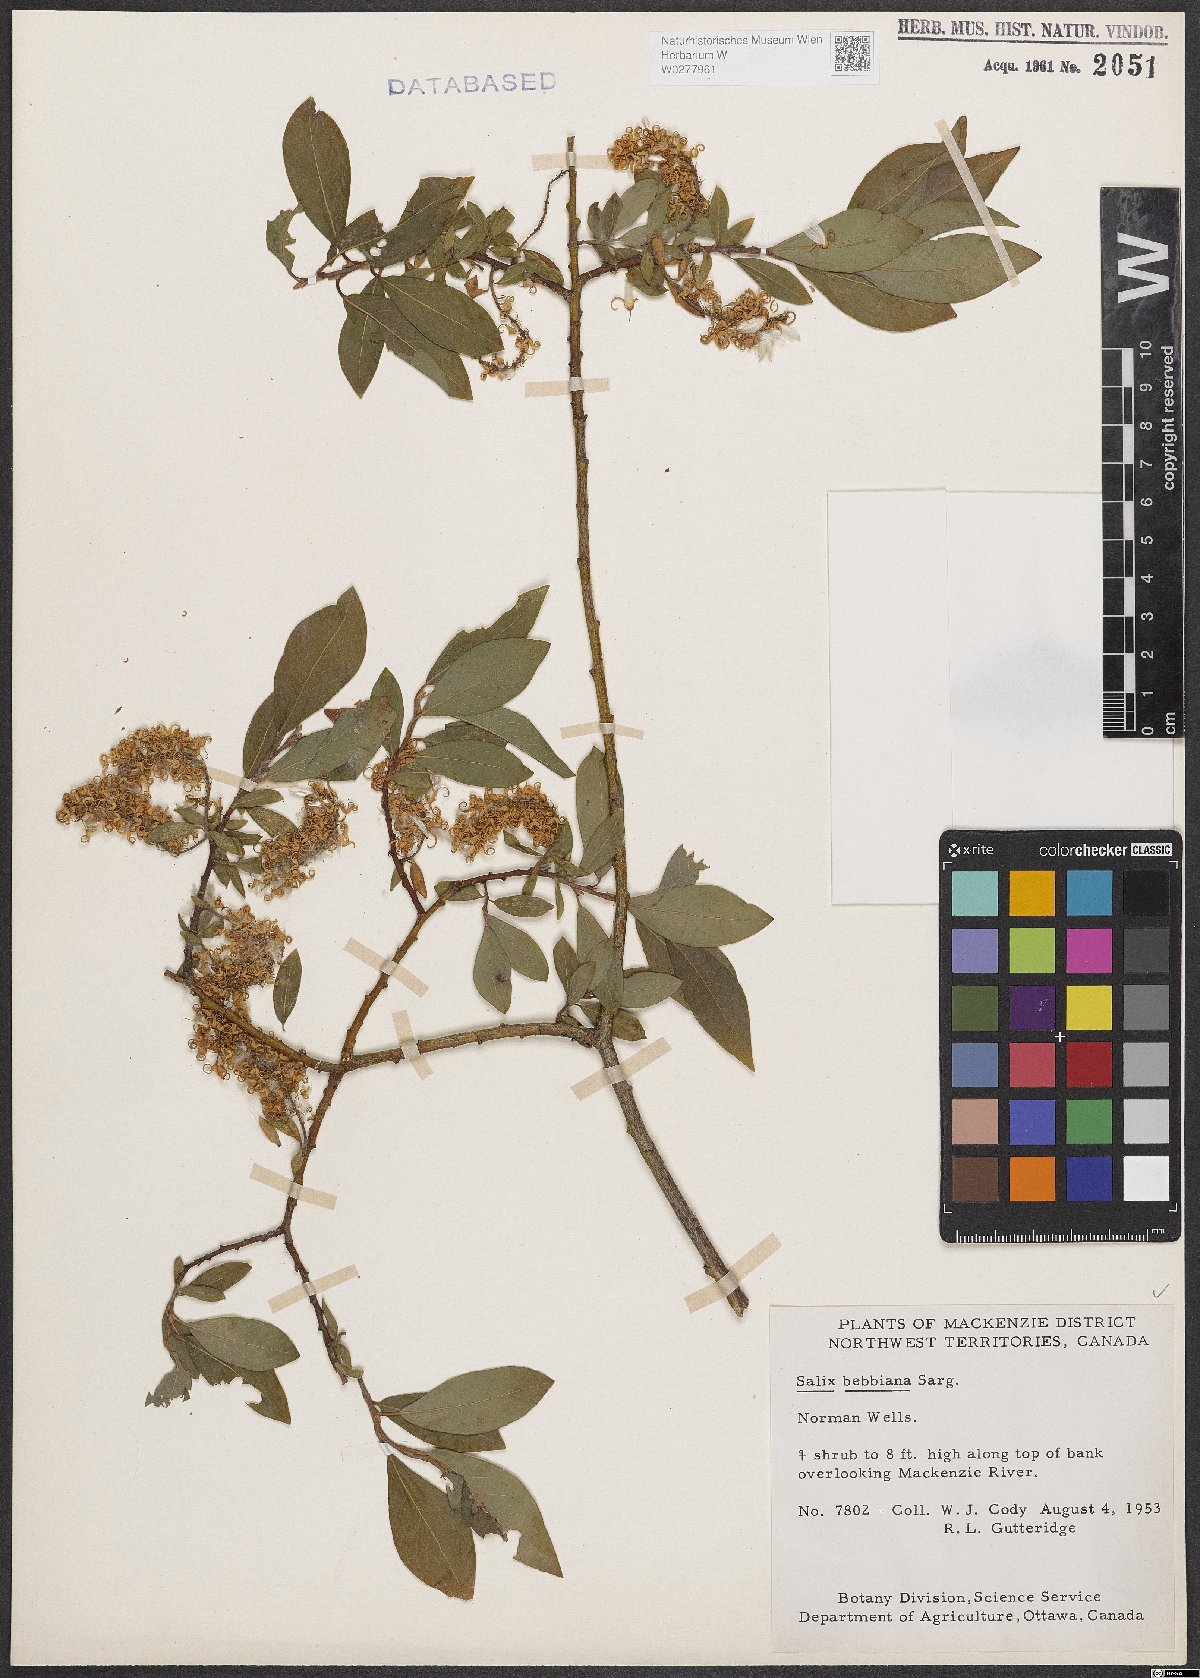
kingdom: Plantae
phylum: Tracheophyta
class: Magnoliopsida
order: Malpighiales
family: Salicaceae
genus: Salix
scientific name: Salix bebbiana
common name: Bebb's willow
